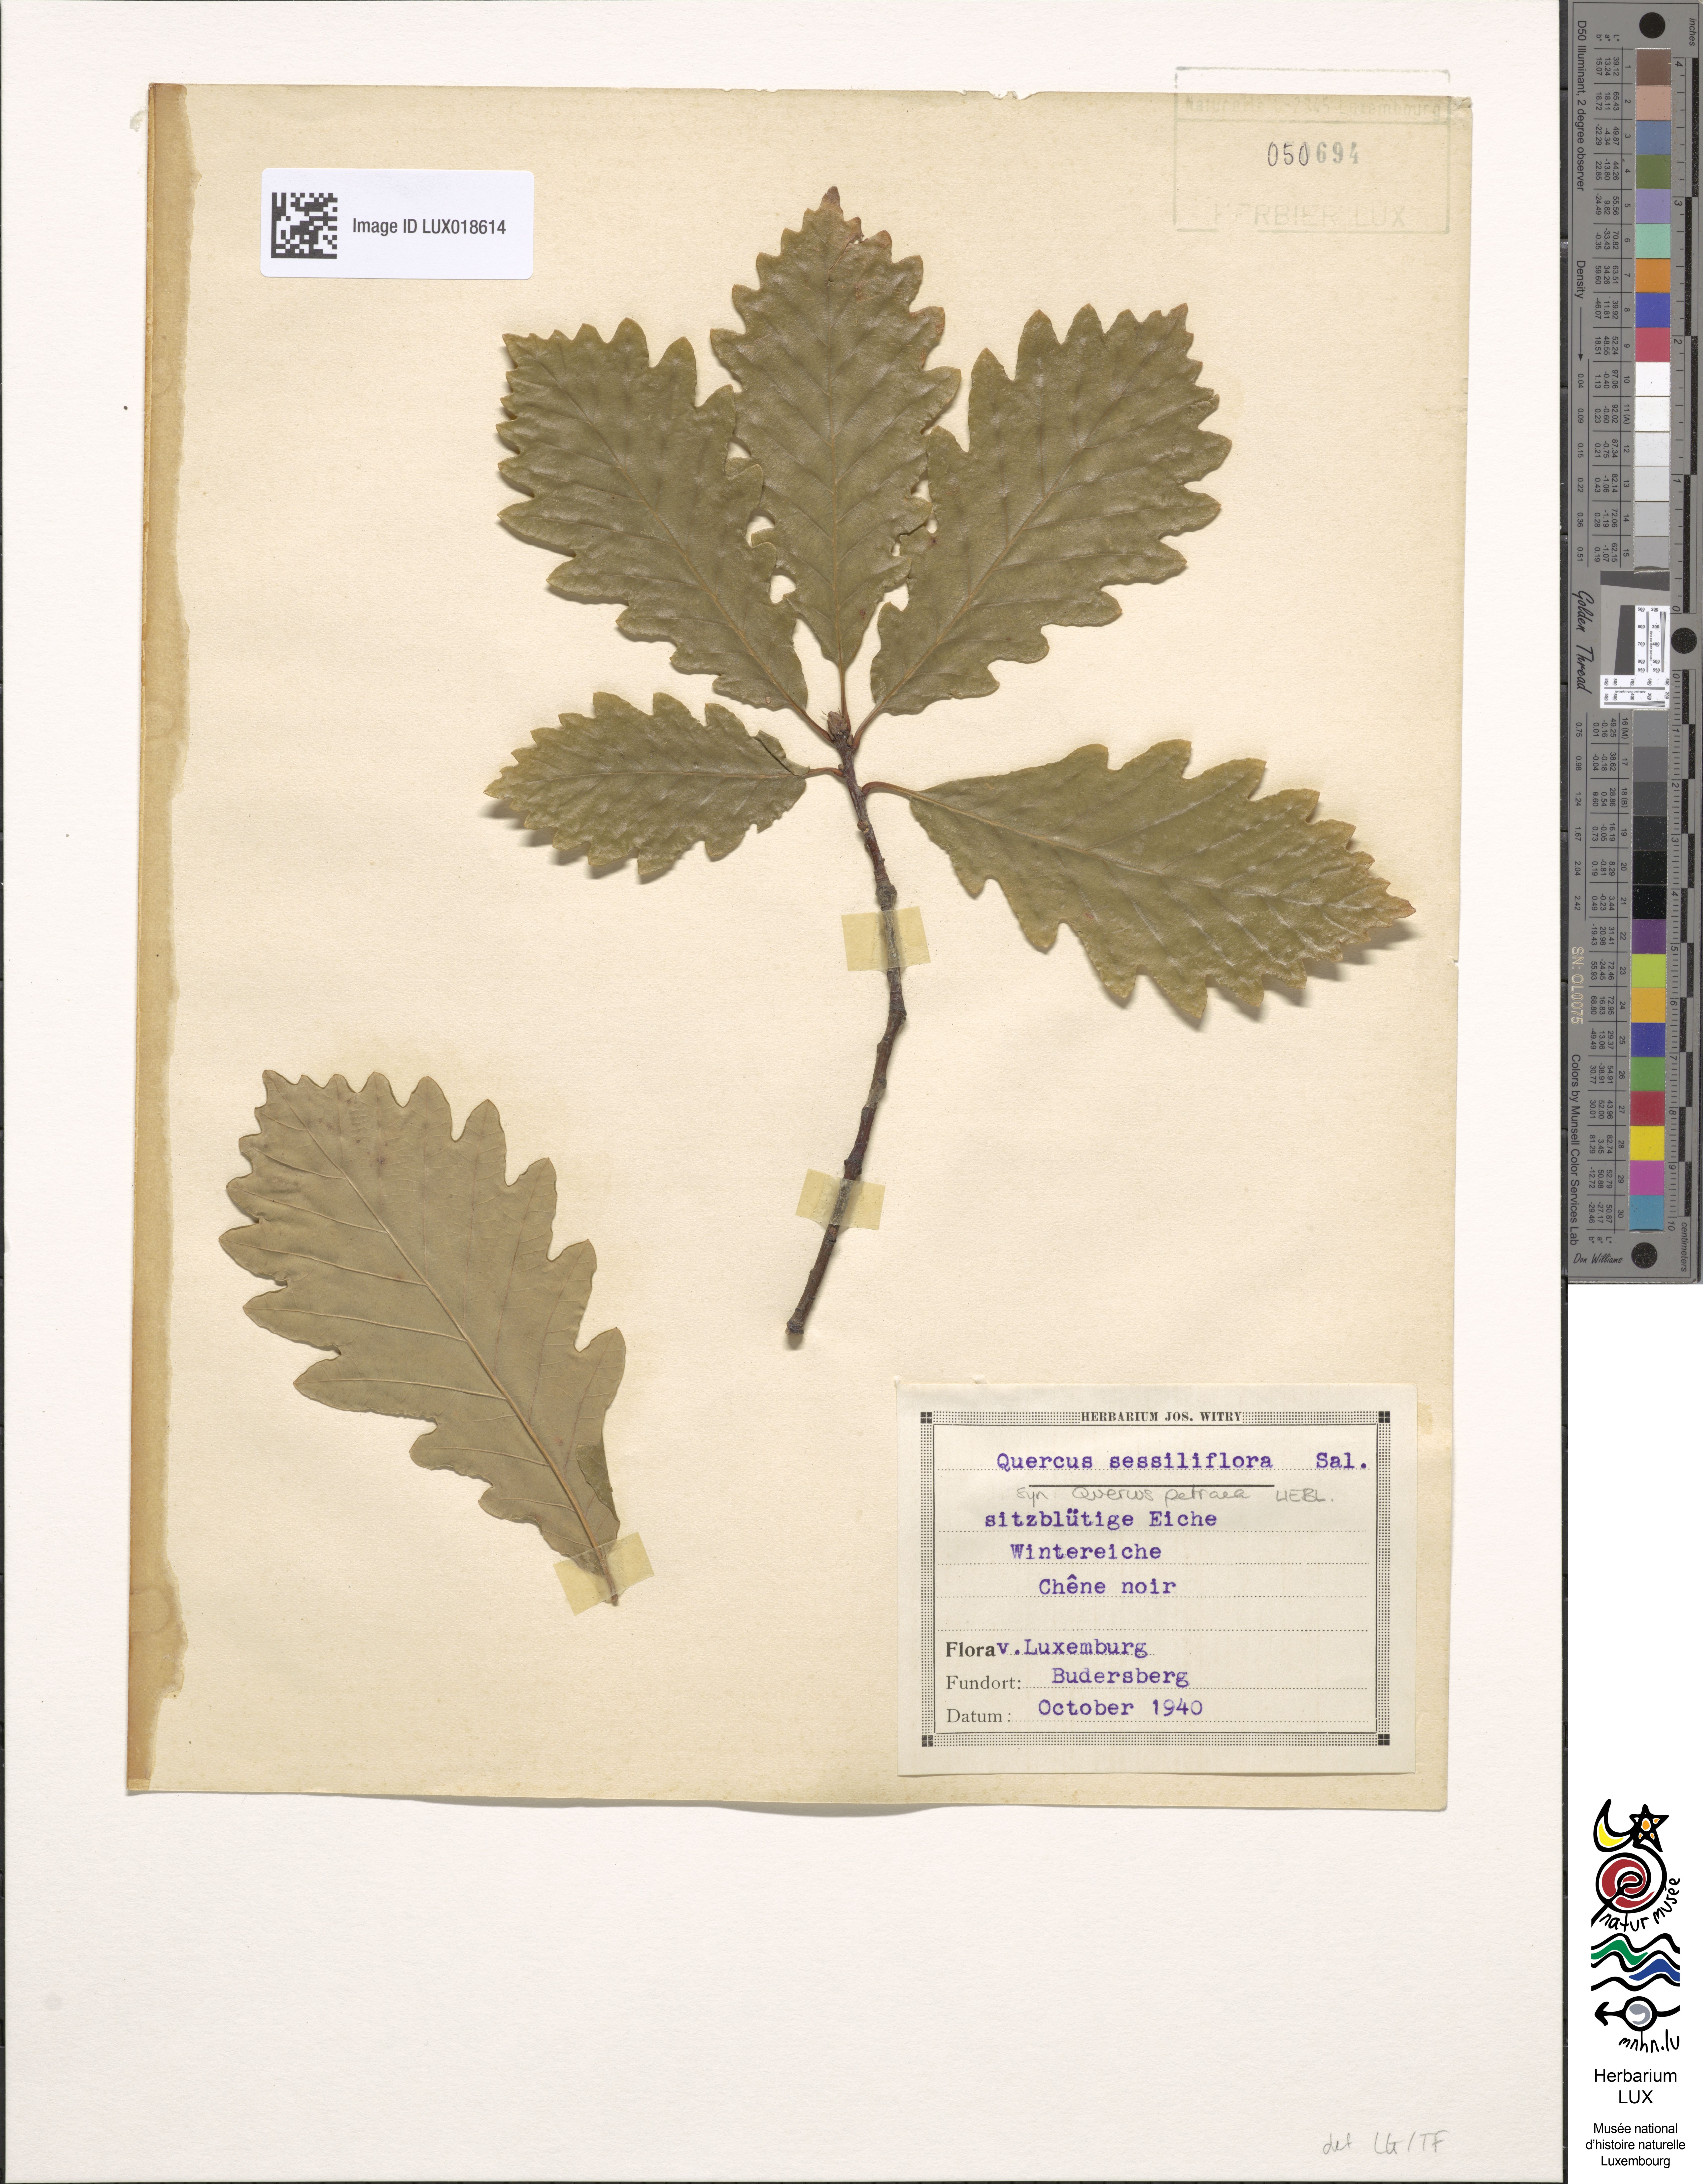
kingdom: Plantae
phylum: Tracheophyta
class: Magnoliopsida
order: Fagales
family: Fagaceae
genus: Quercus
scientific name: Quercus petraea
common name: Sessile oak
